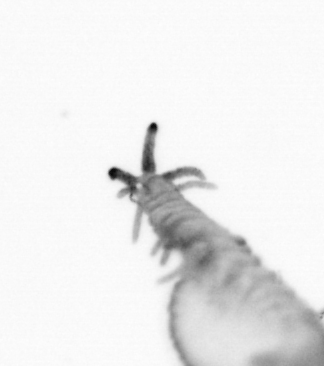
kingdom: Animalia
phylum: Annelida
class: Polychaeta
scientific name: Polychaeta
